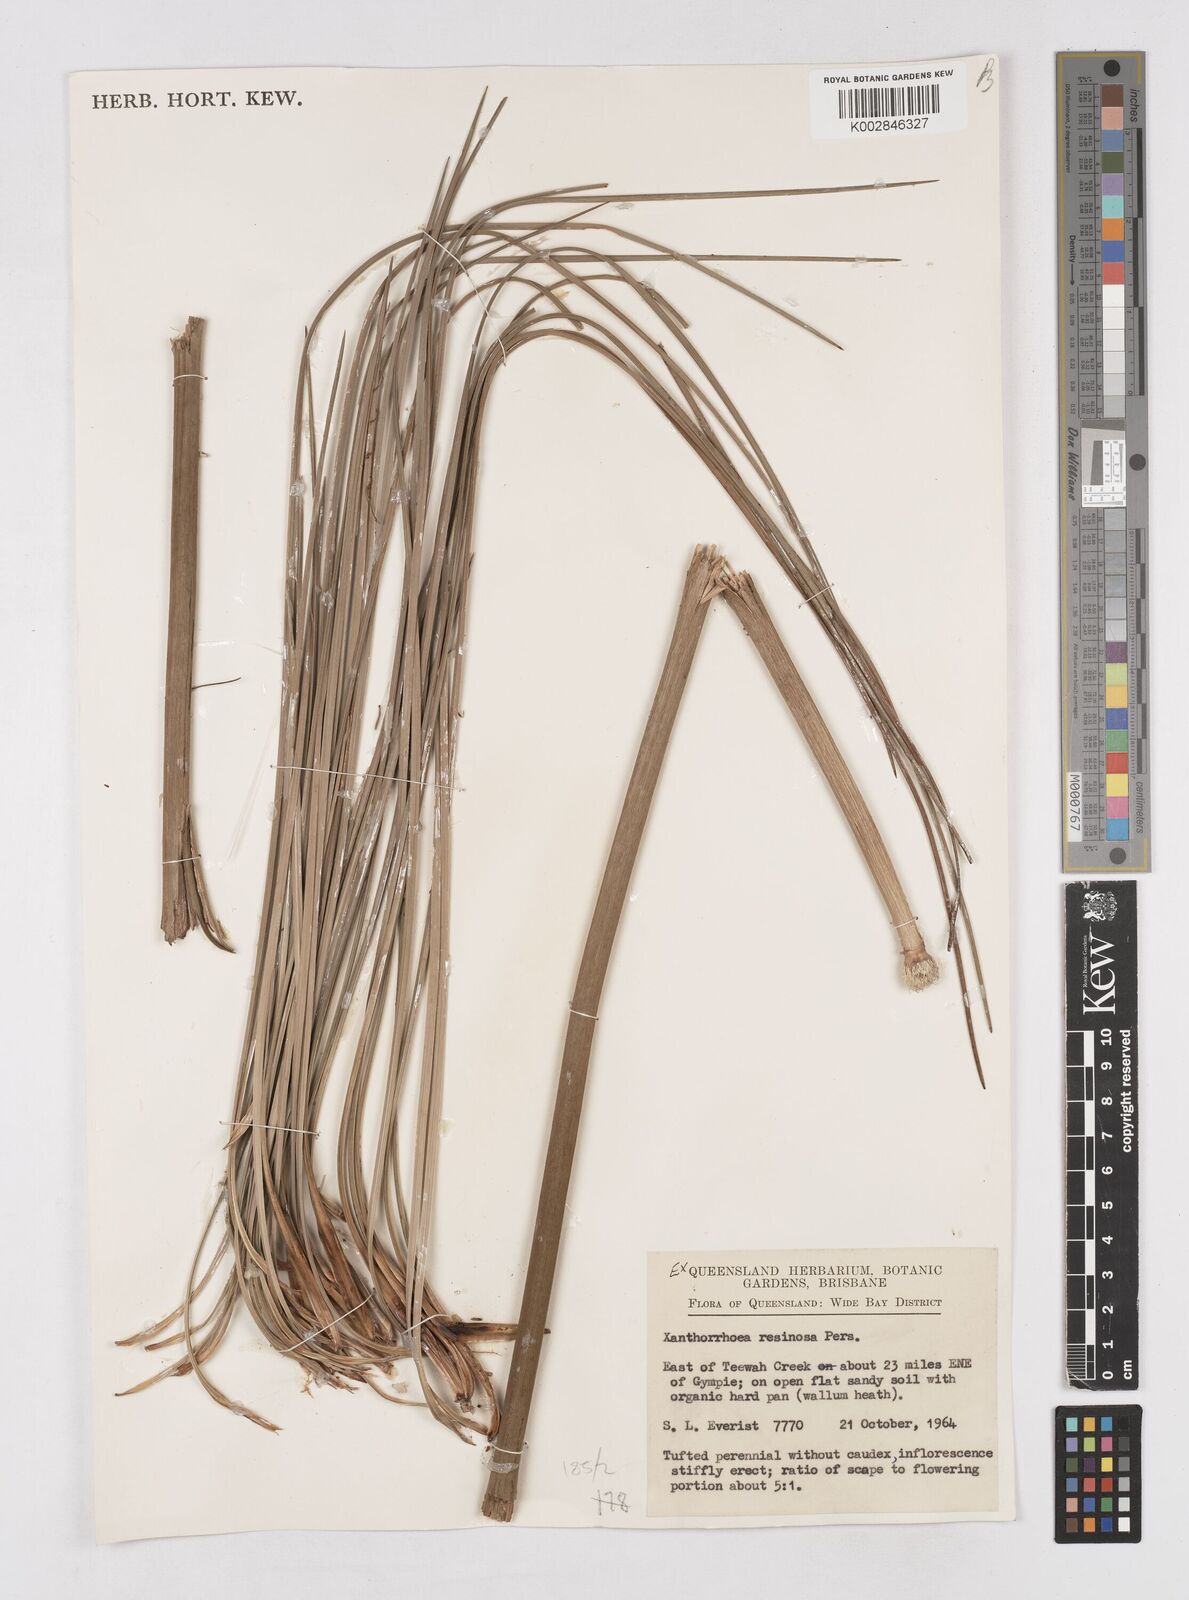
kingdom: Plantae
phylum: Tracheophyta
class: Liliopsida
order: Asparagales
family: Asphodelaceae
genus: Xanthorrhoea
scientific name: Xanthorrhoea
